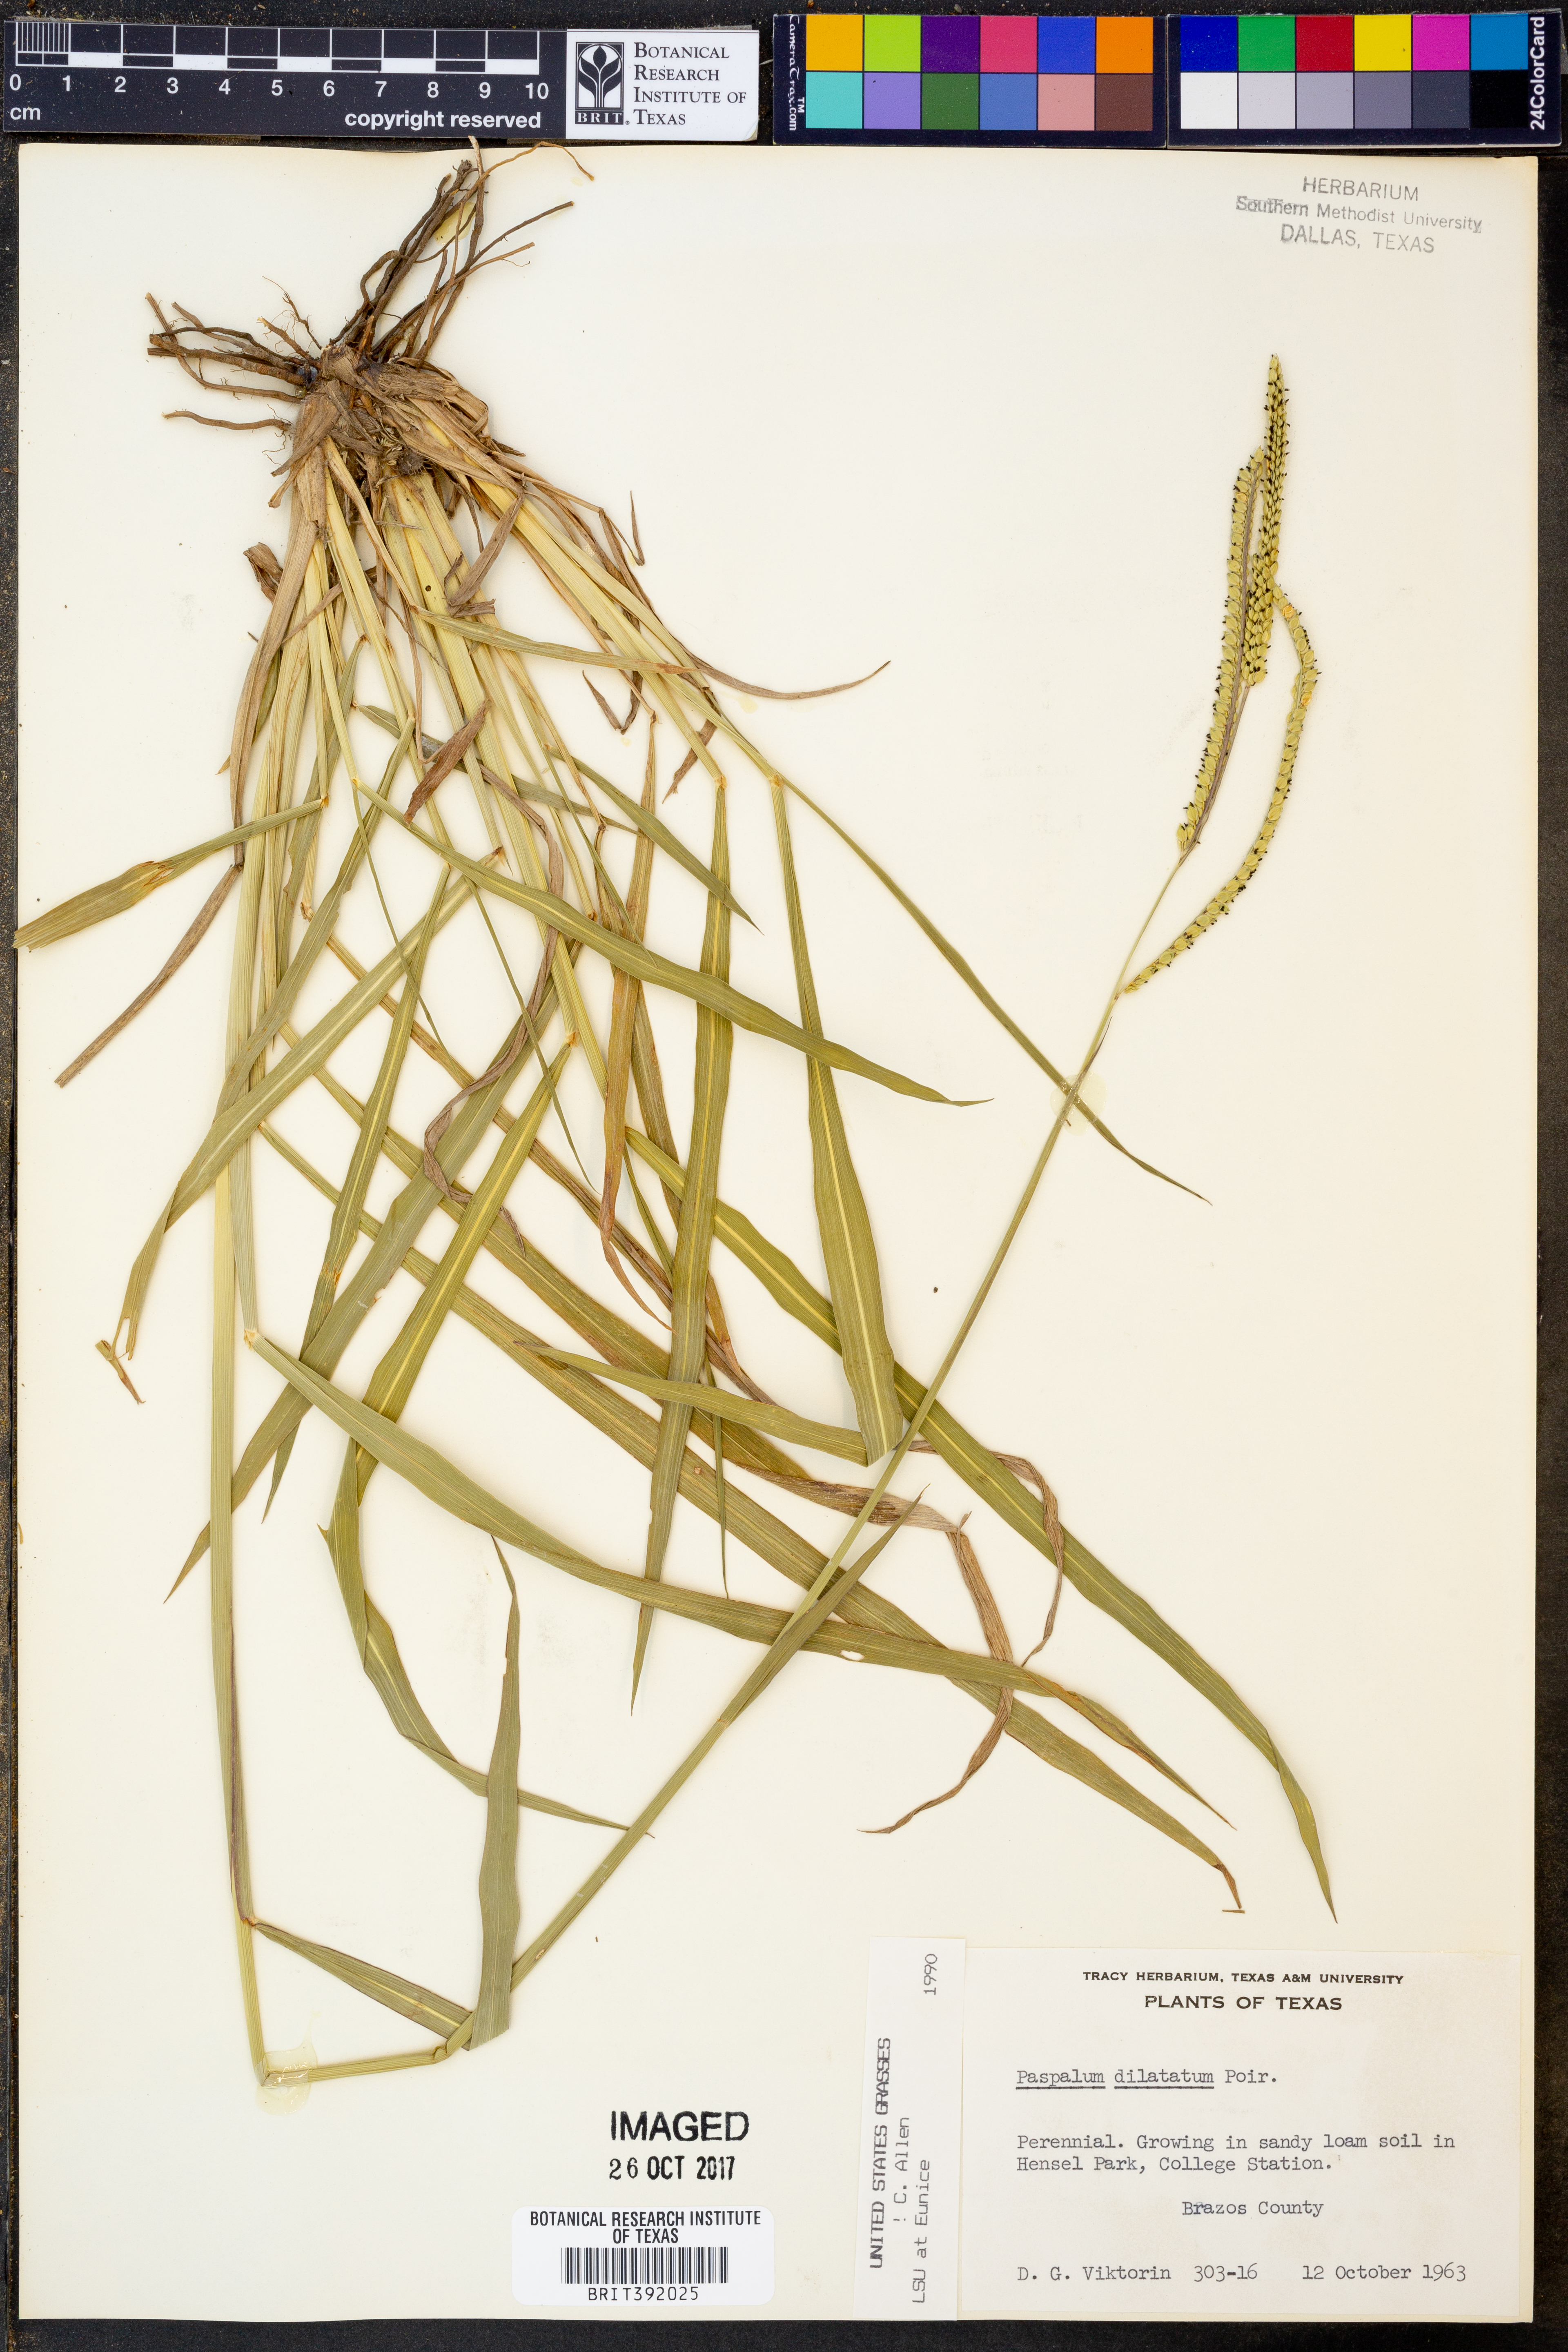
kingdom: Plantae
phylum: Tracheophyta
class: Liliopsida
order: Poales
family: Poaceae
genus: Paspalum
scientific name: Paspalum dilatatum
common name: Dallisgrass
